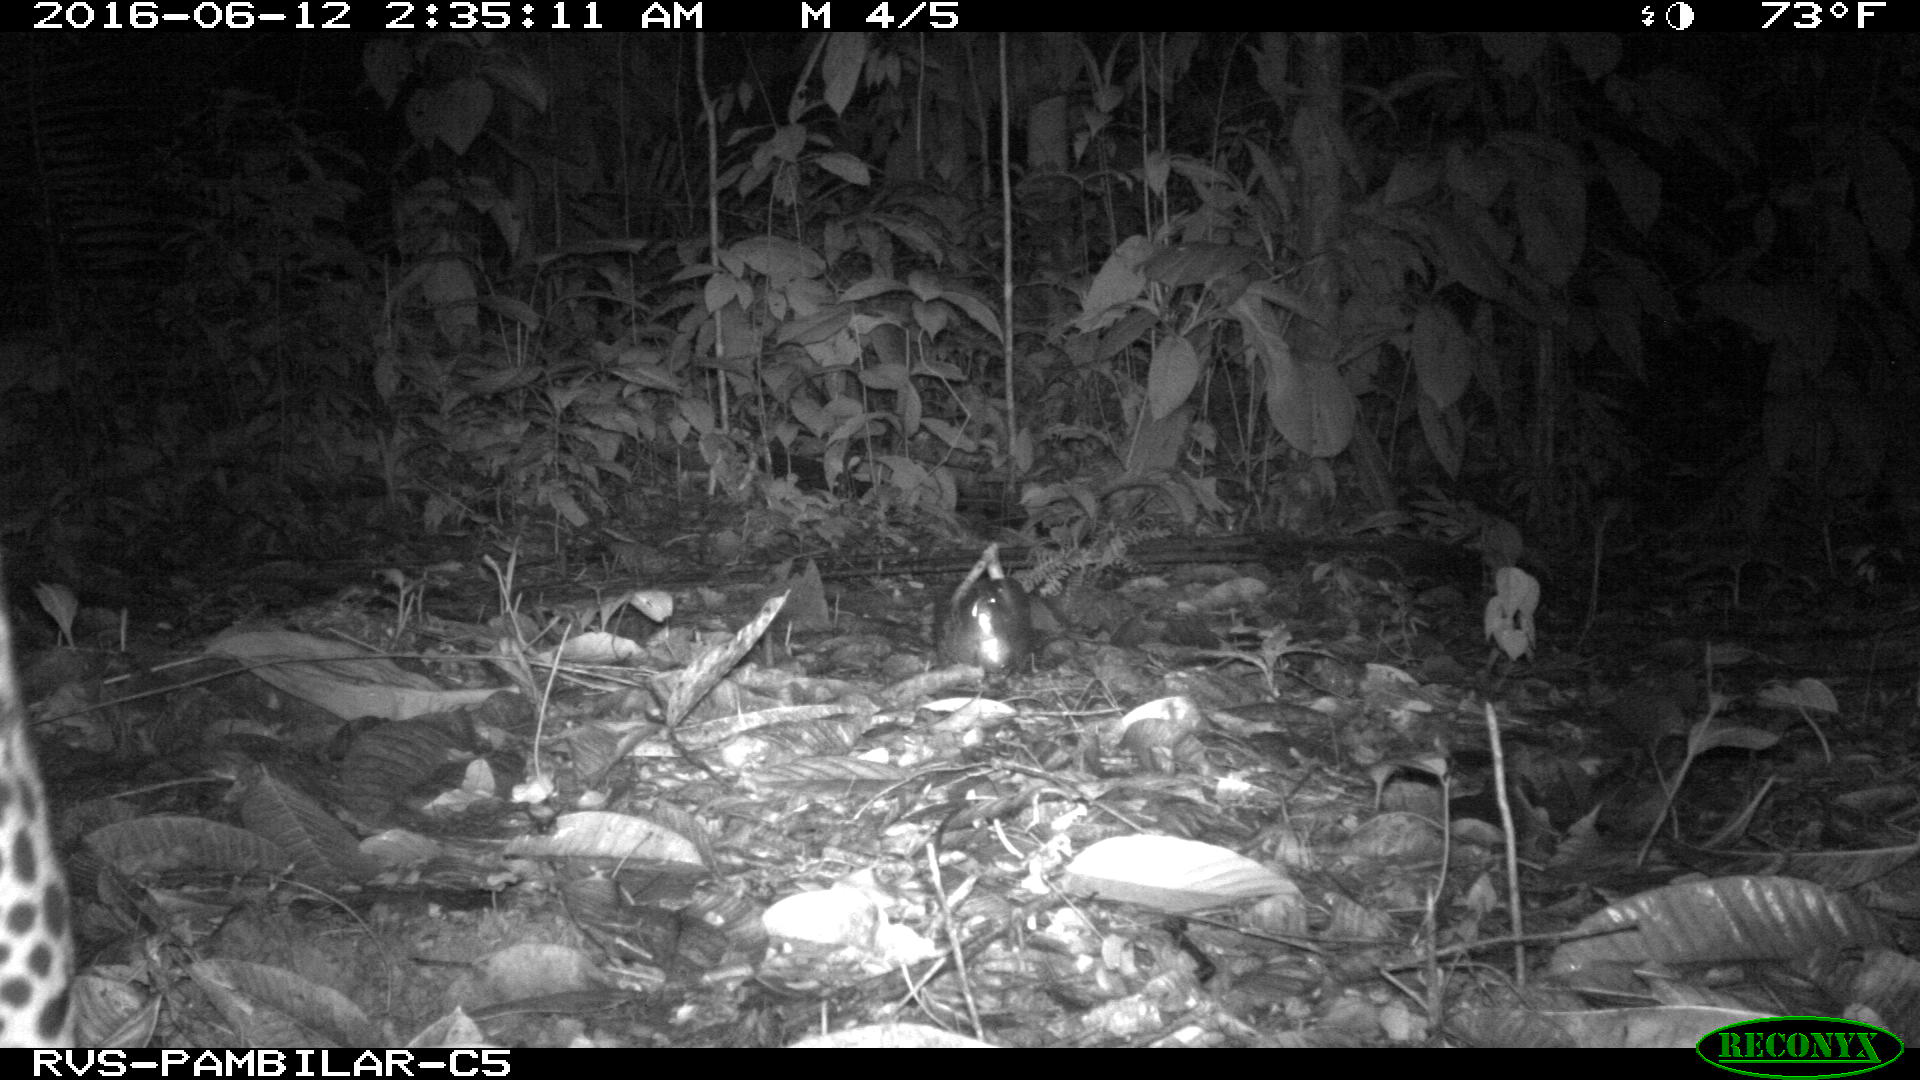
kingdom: Animalia
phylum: Chordata
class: Mammalia
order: Carnivora
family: Felidae
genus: Leopardus
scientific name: Leopardus pardalis
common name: Ocelot
